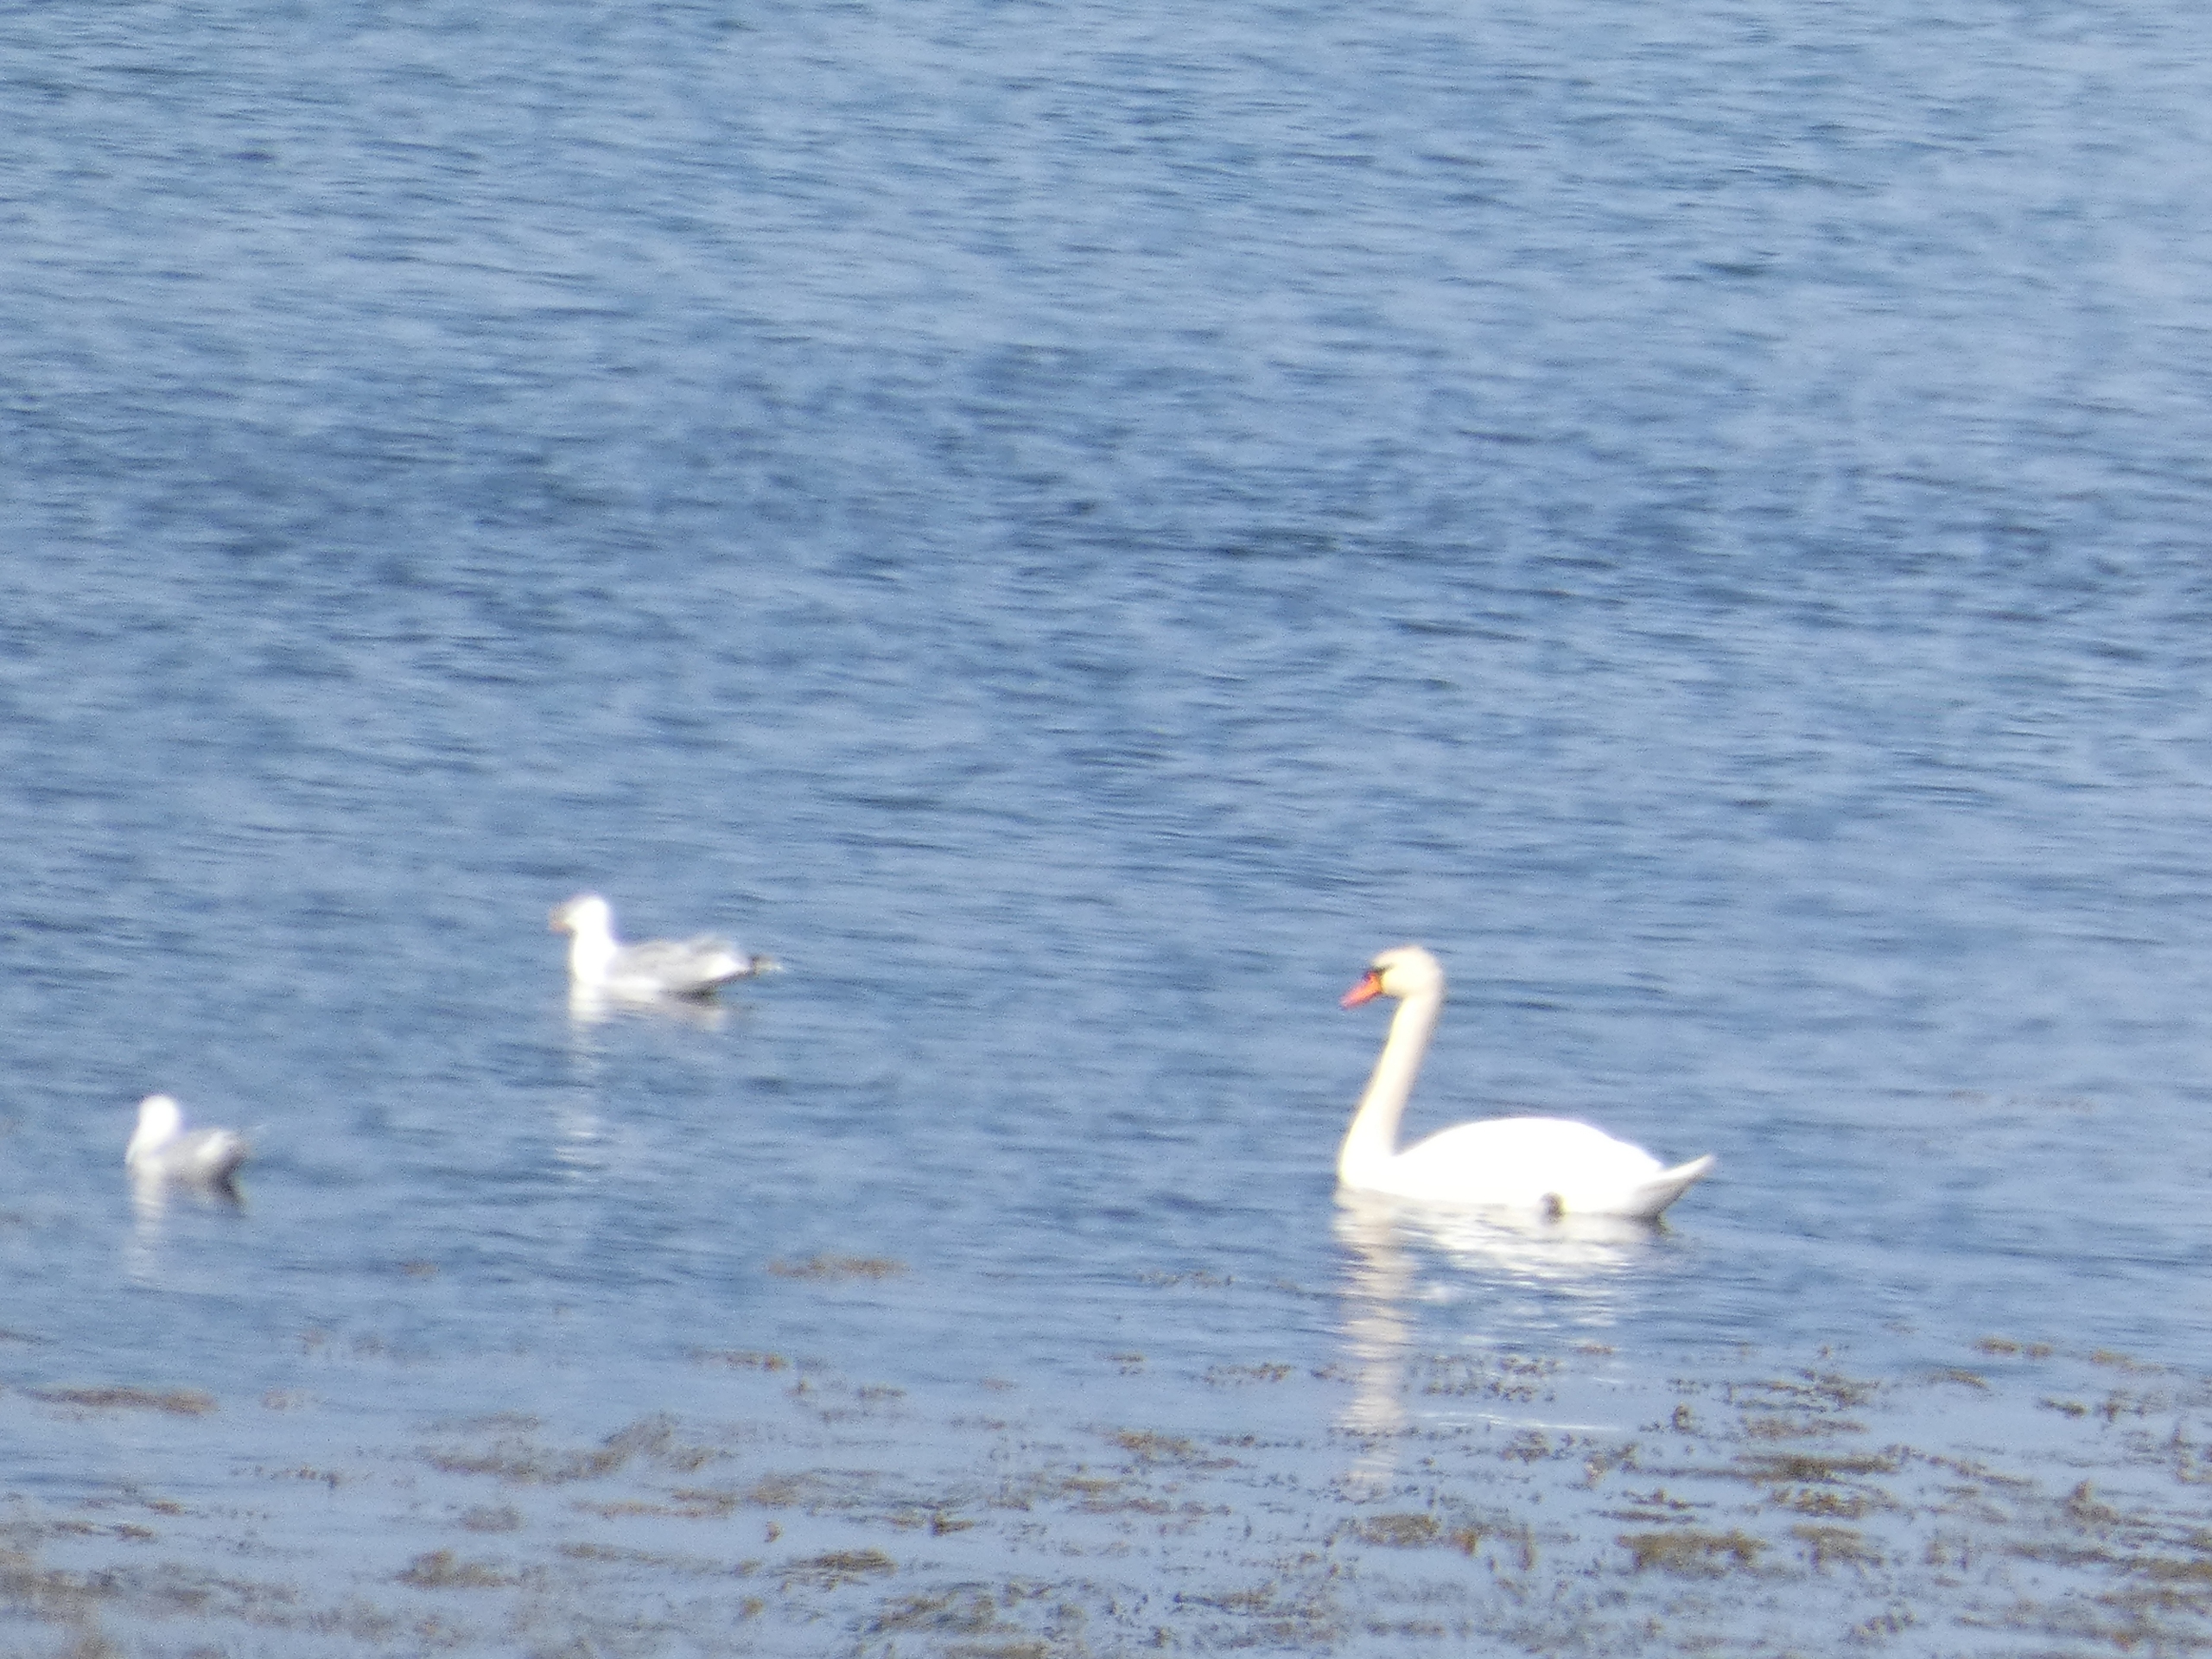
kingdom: Animalia
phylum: Chordata
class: Aves
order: Anseriformes
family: Anatidae
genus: Cygnus
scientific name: Cygnus olor
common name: Knopsvane
